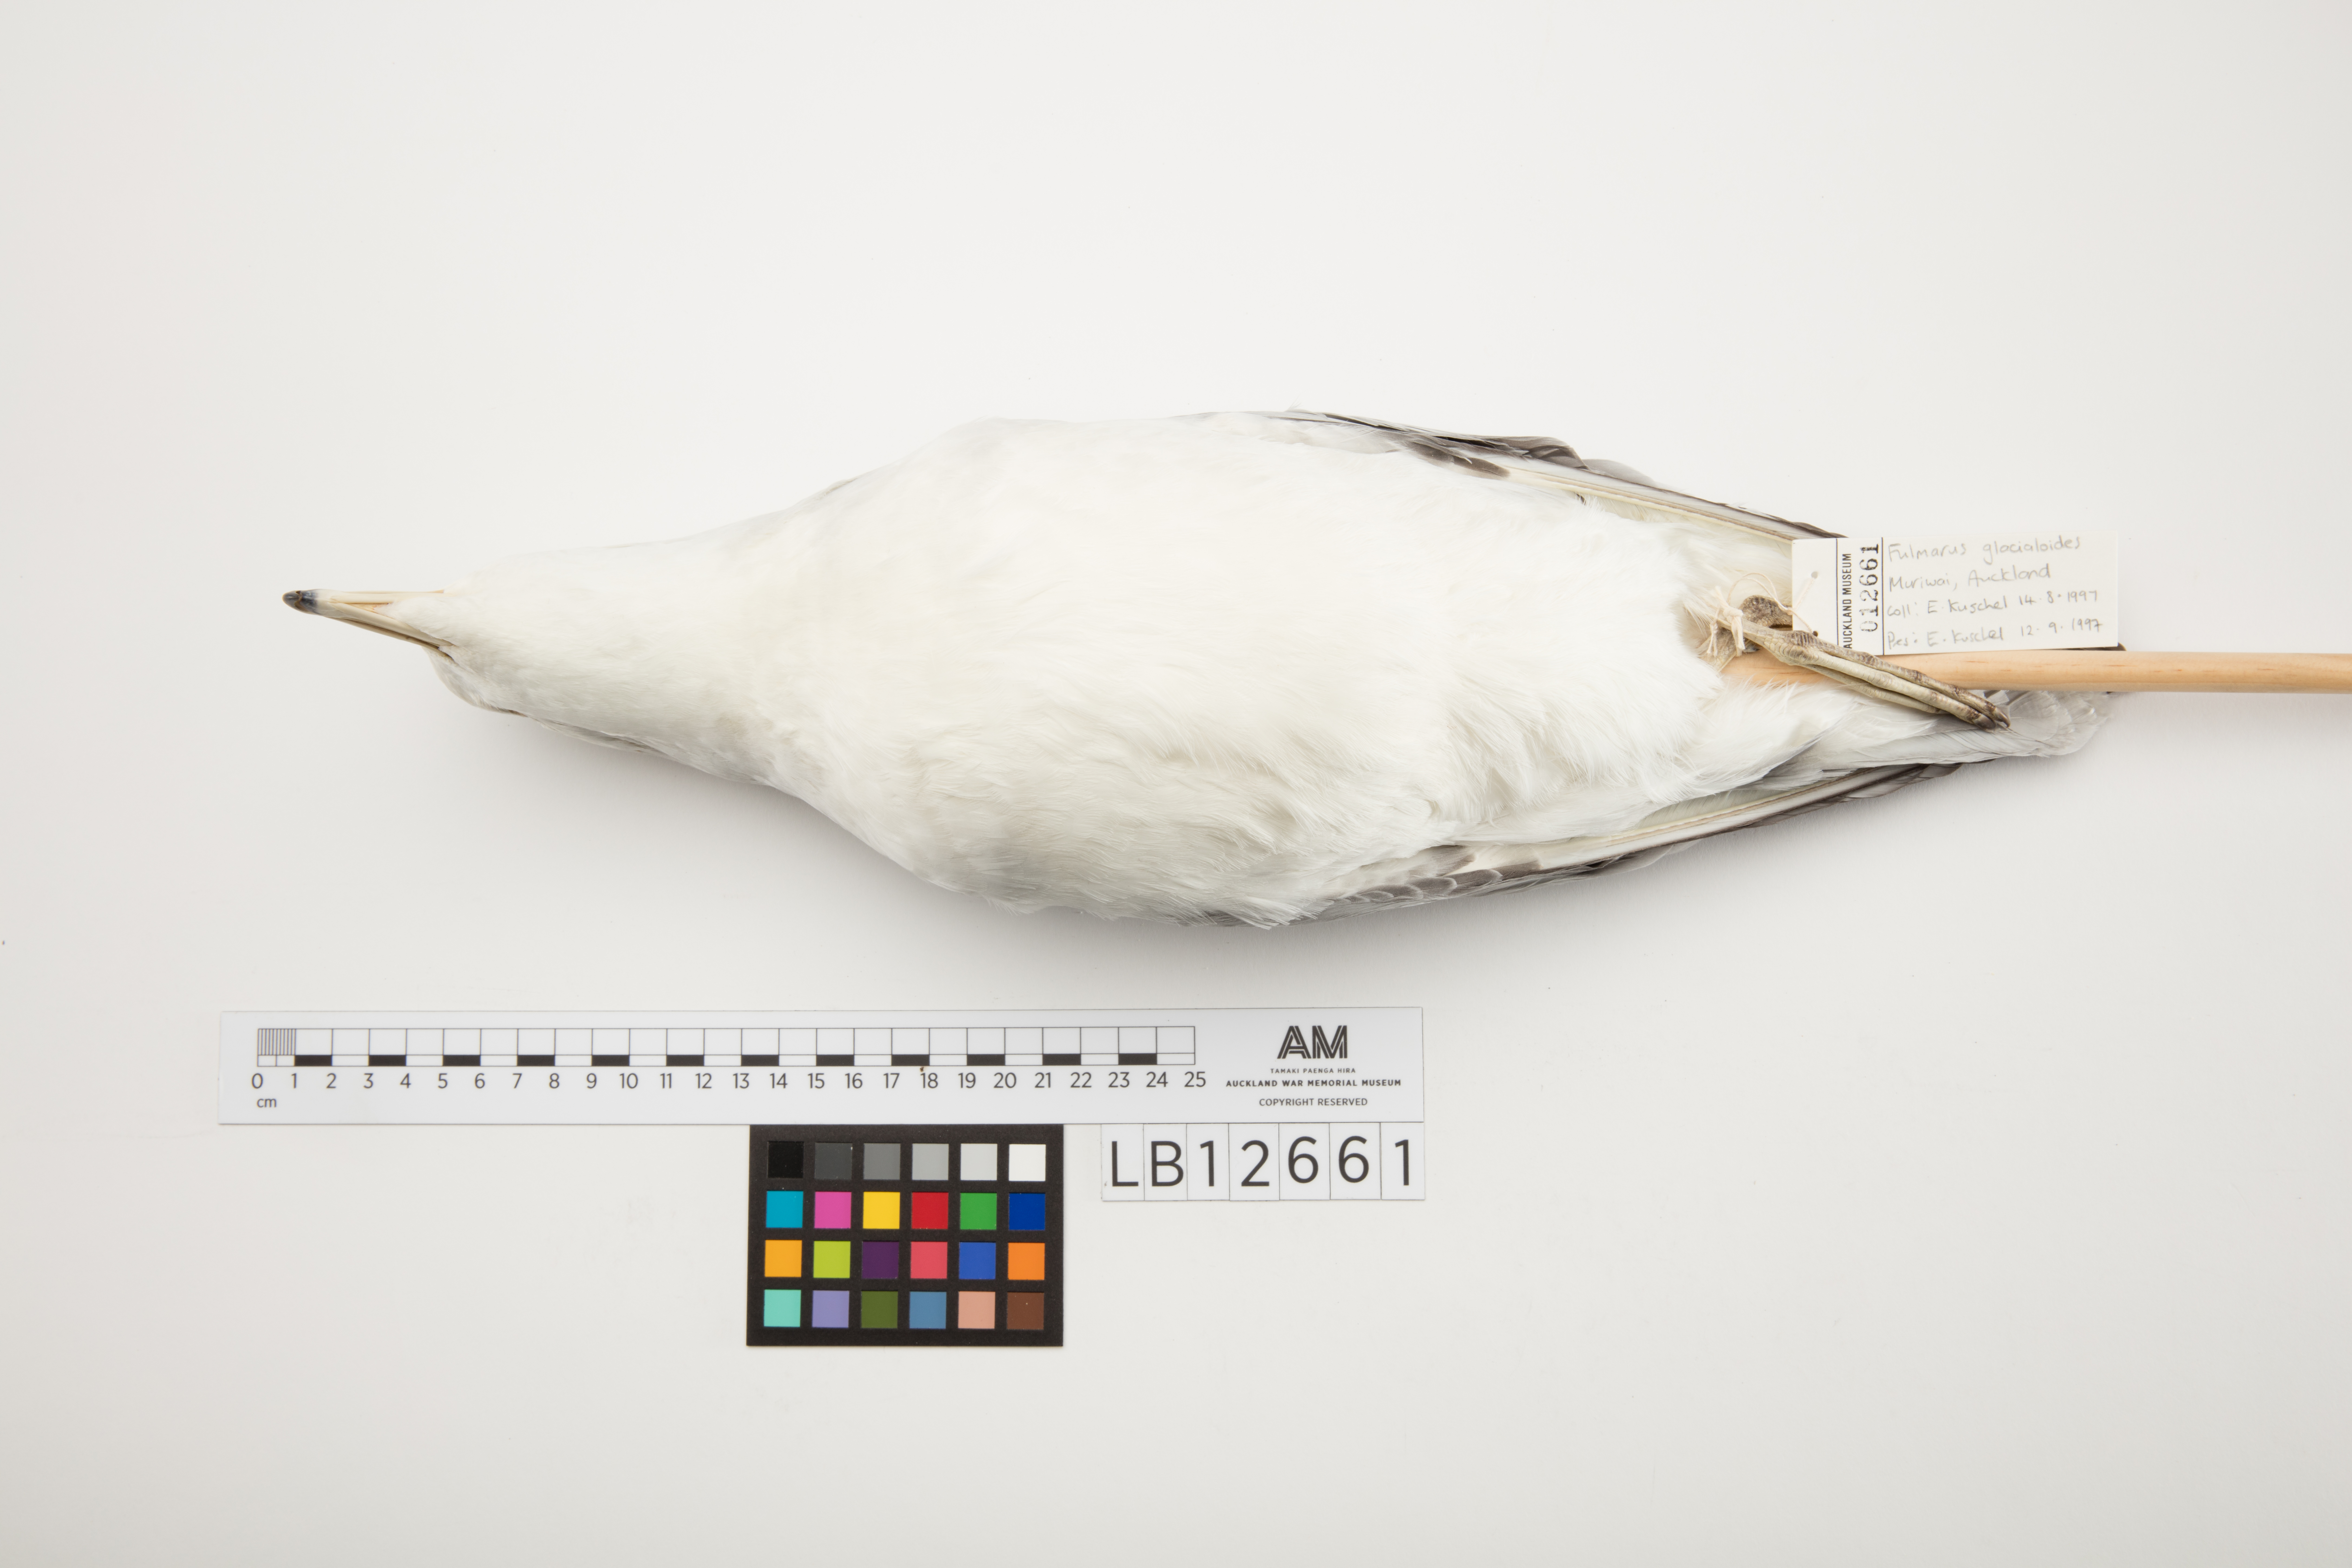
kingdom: Animalia
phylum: Chordata
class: Aves
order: Procellariiformes
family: Procellariidae
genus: Fulmarus
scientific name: Fulmarus glacialoides
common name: Southern fulmar
